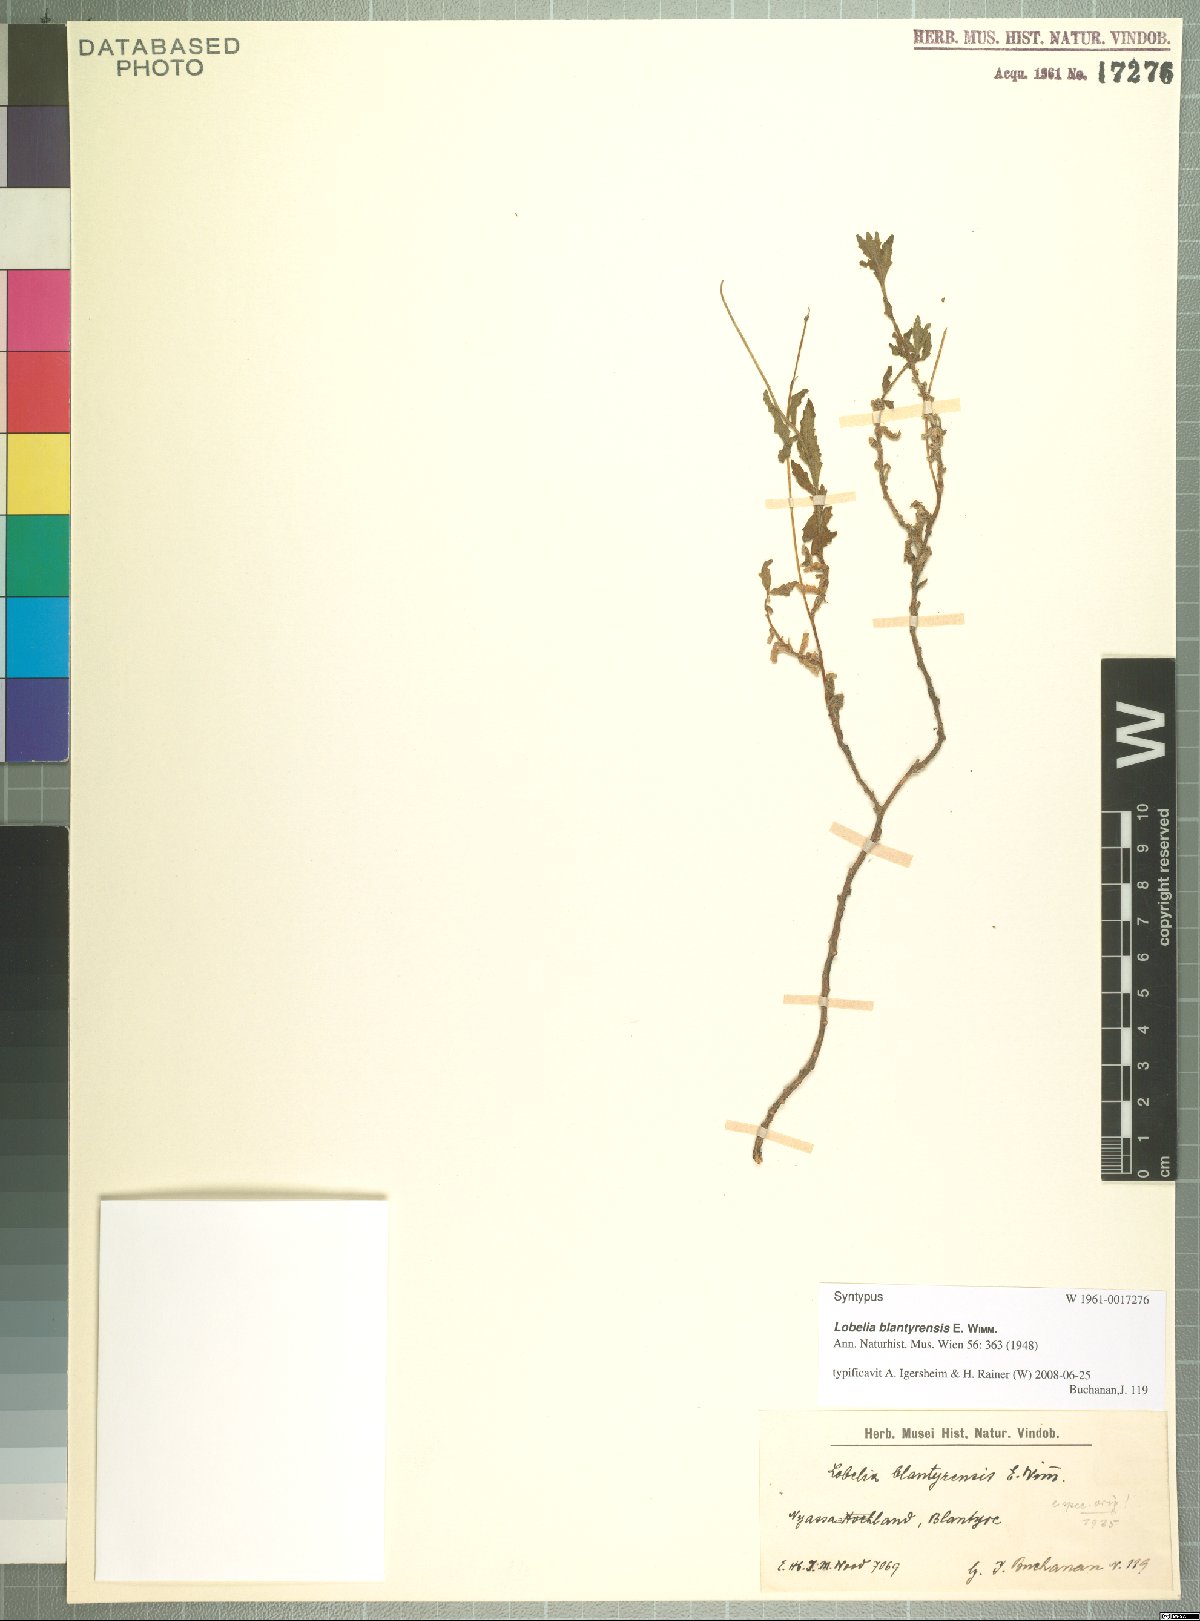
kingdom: Plantae
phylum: Tracheophyta
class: Magnoliopsida
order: Asterales
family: Campanulaceae
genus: Lobelia
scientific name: Lobelia blantyrensis
